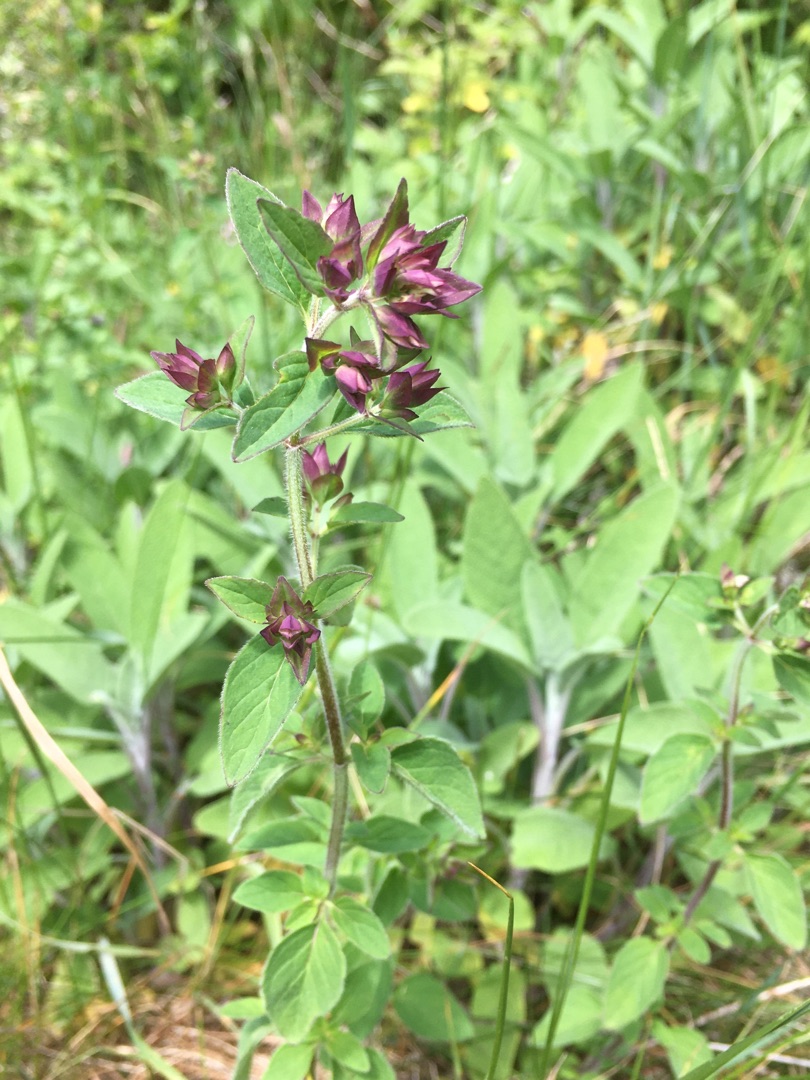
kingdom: Plantae
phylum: Tracheophyta
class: Magnoliopsida
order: Lamiales
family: Lamiaceae
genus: Origanum
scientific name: Origanum vulgare
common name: Merian
